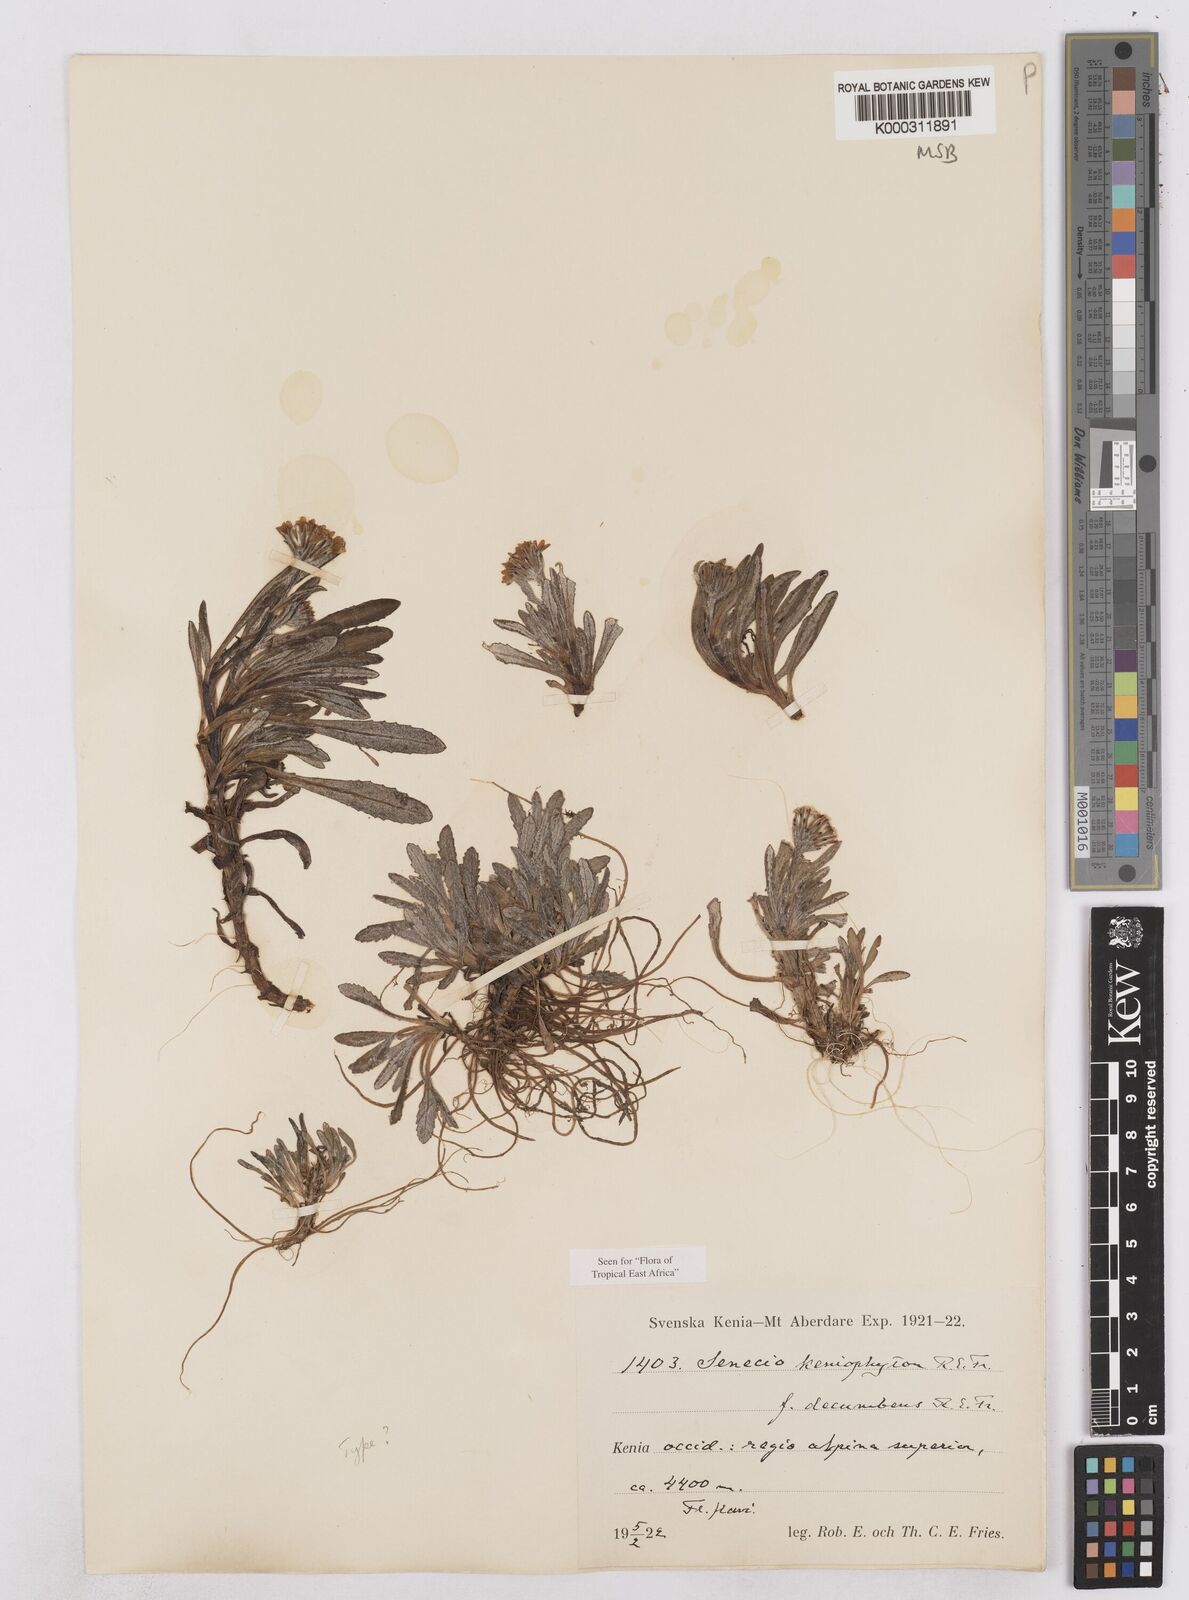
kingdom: Plantae
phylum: Tracheophyta
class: Magnoliopsida
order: Asterales
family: Asteraceae
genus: Senecio
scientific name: Senecio keniophytum
